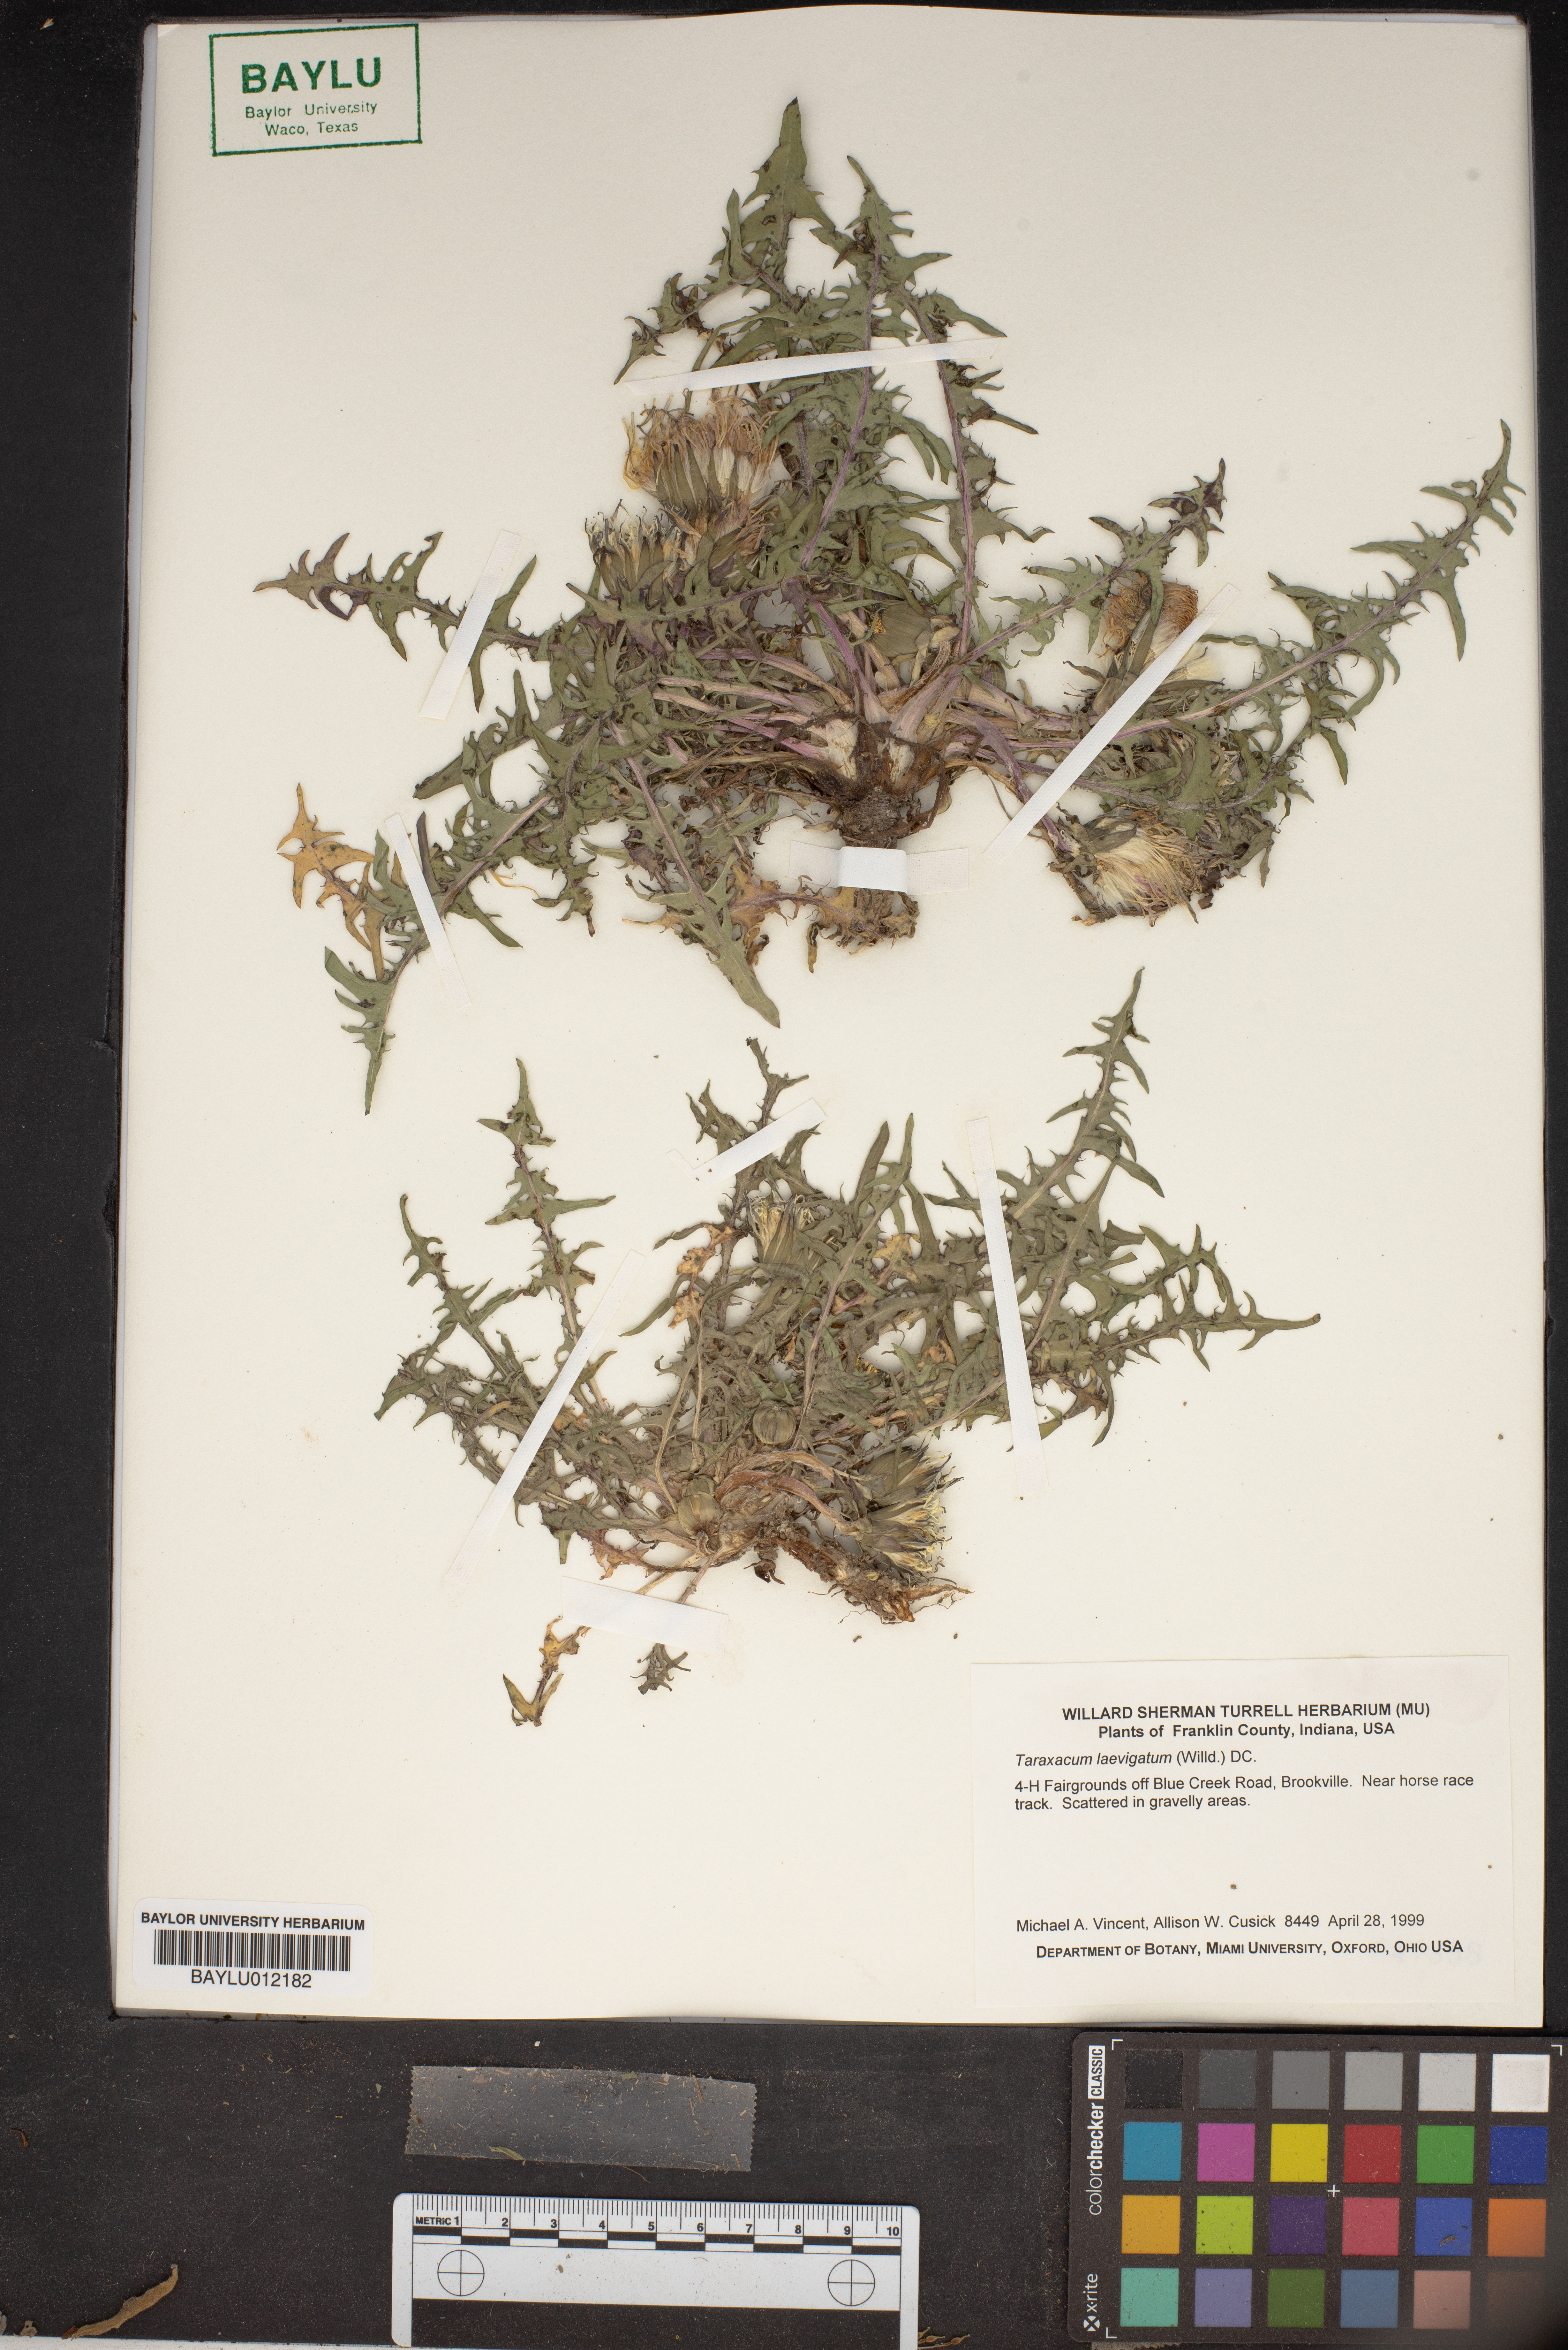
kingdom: Plantae
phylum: Tracheophyta
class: Magnoliopsida
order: Asterales
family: Asteraceae
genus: Taraxacum
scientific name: Taraxacum erythrospermum
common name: Rock dandelion
